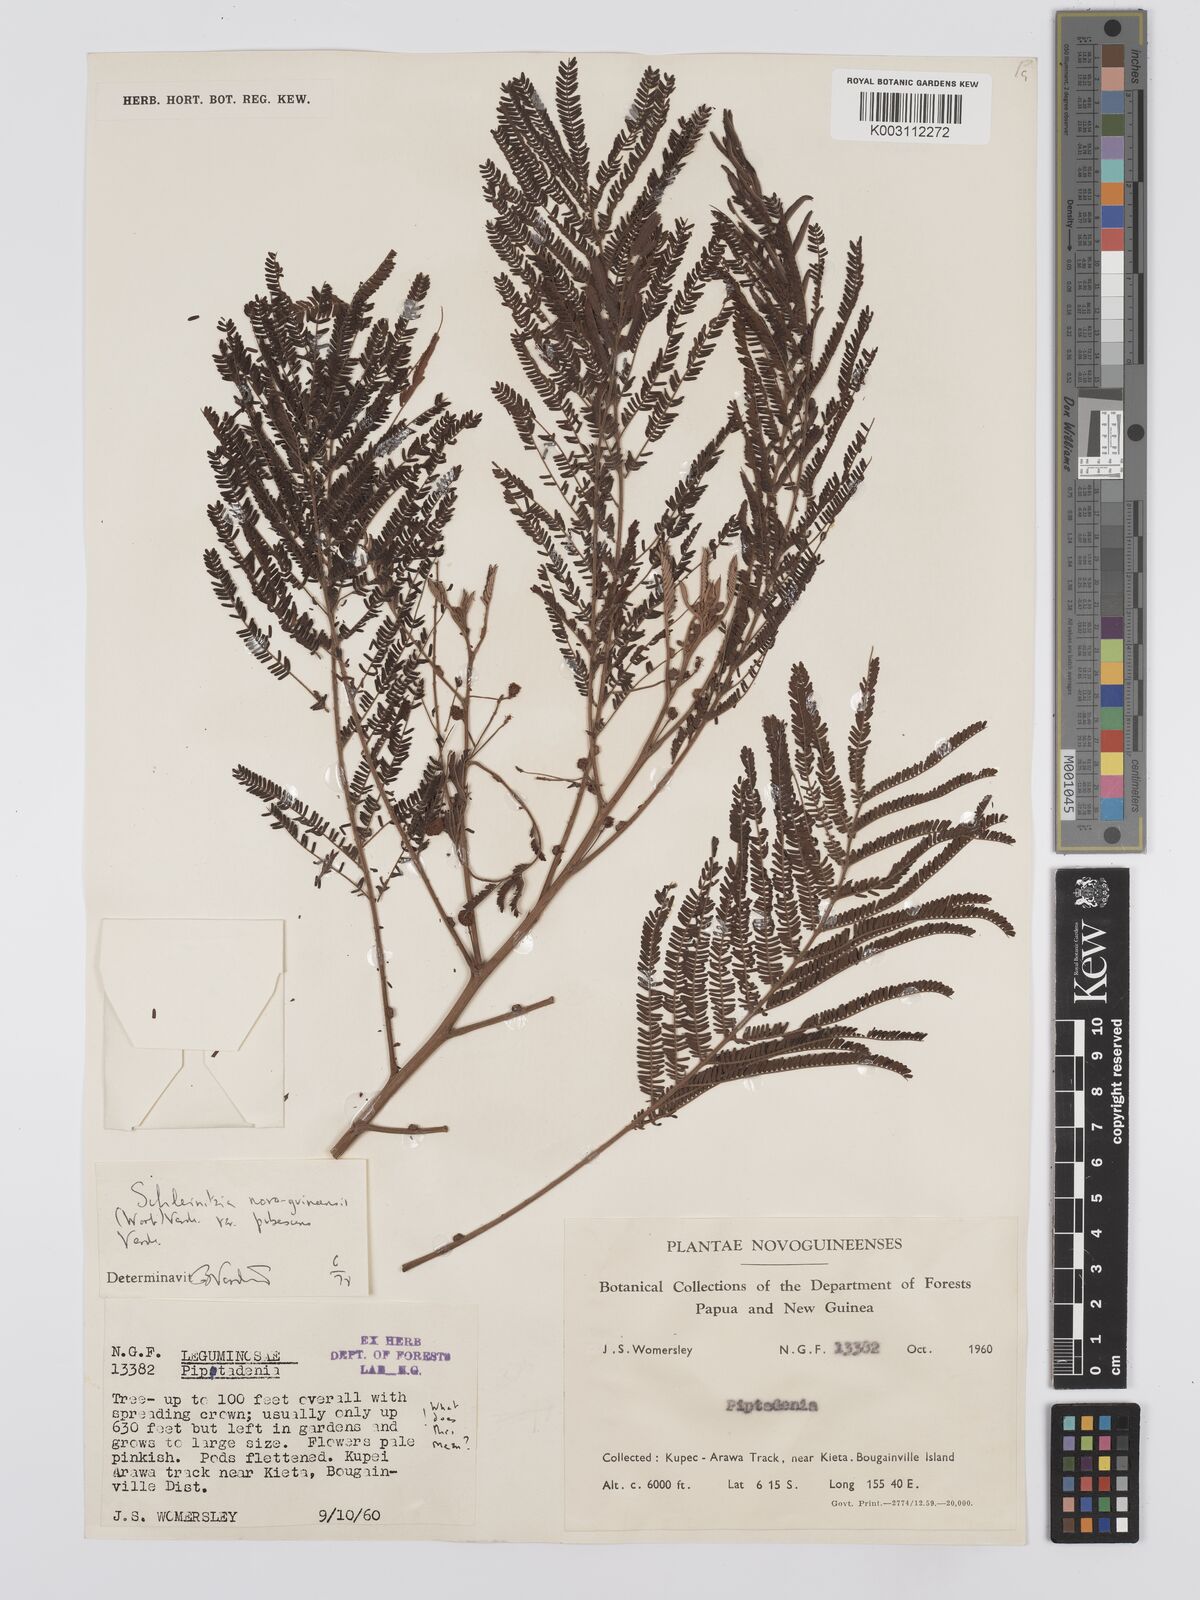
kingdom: Plantae
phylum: Tracheophyta
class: Magnoliopsida
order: Fabales
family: Fabaceae
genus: Schleinitzia
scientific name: Schleinitzia novoguineensis
